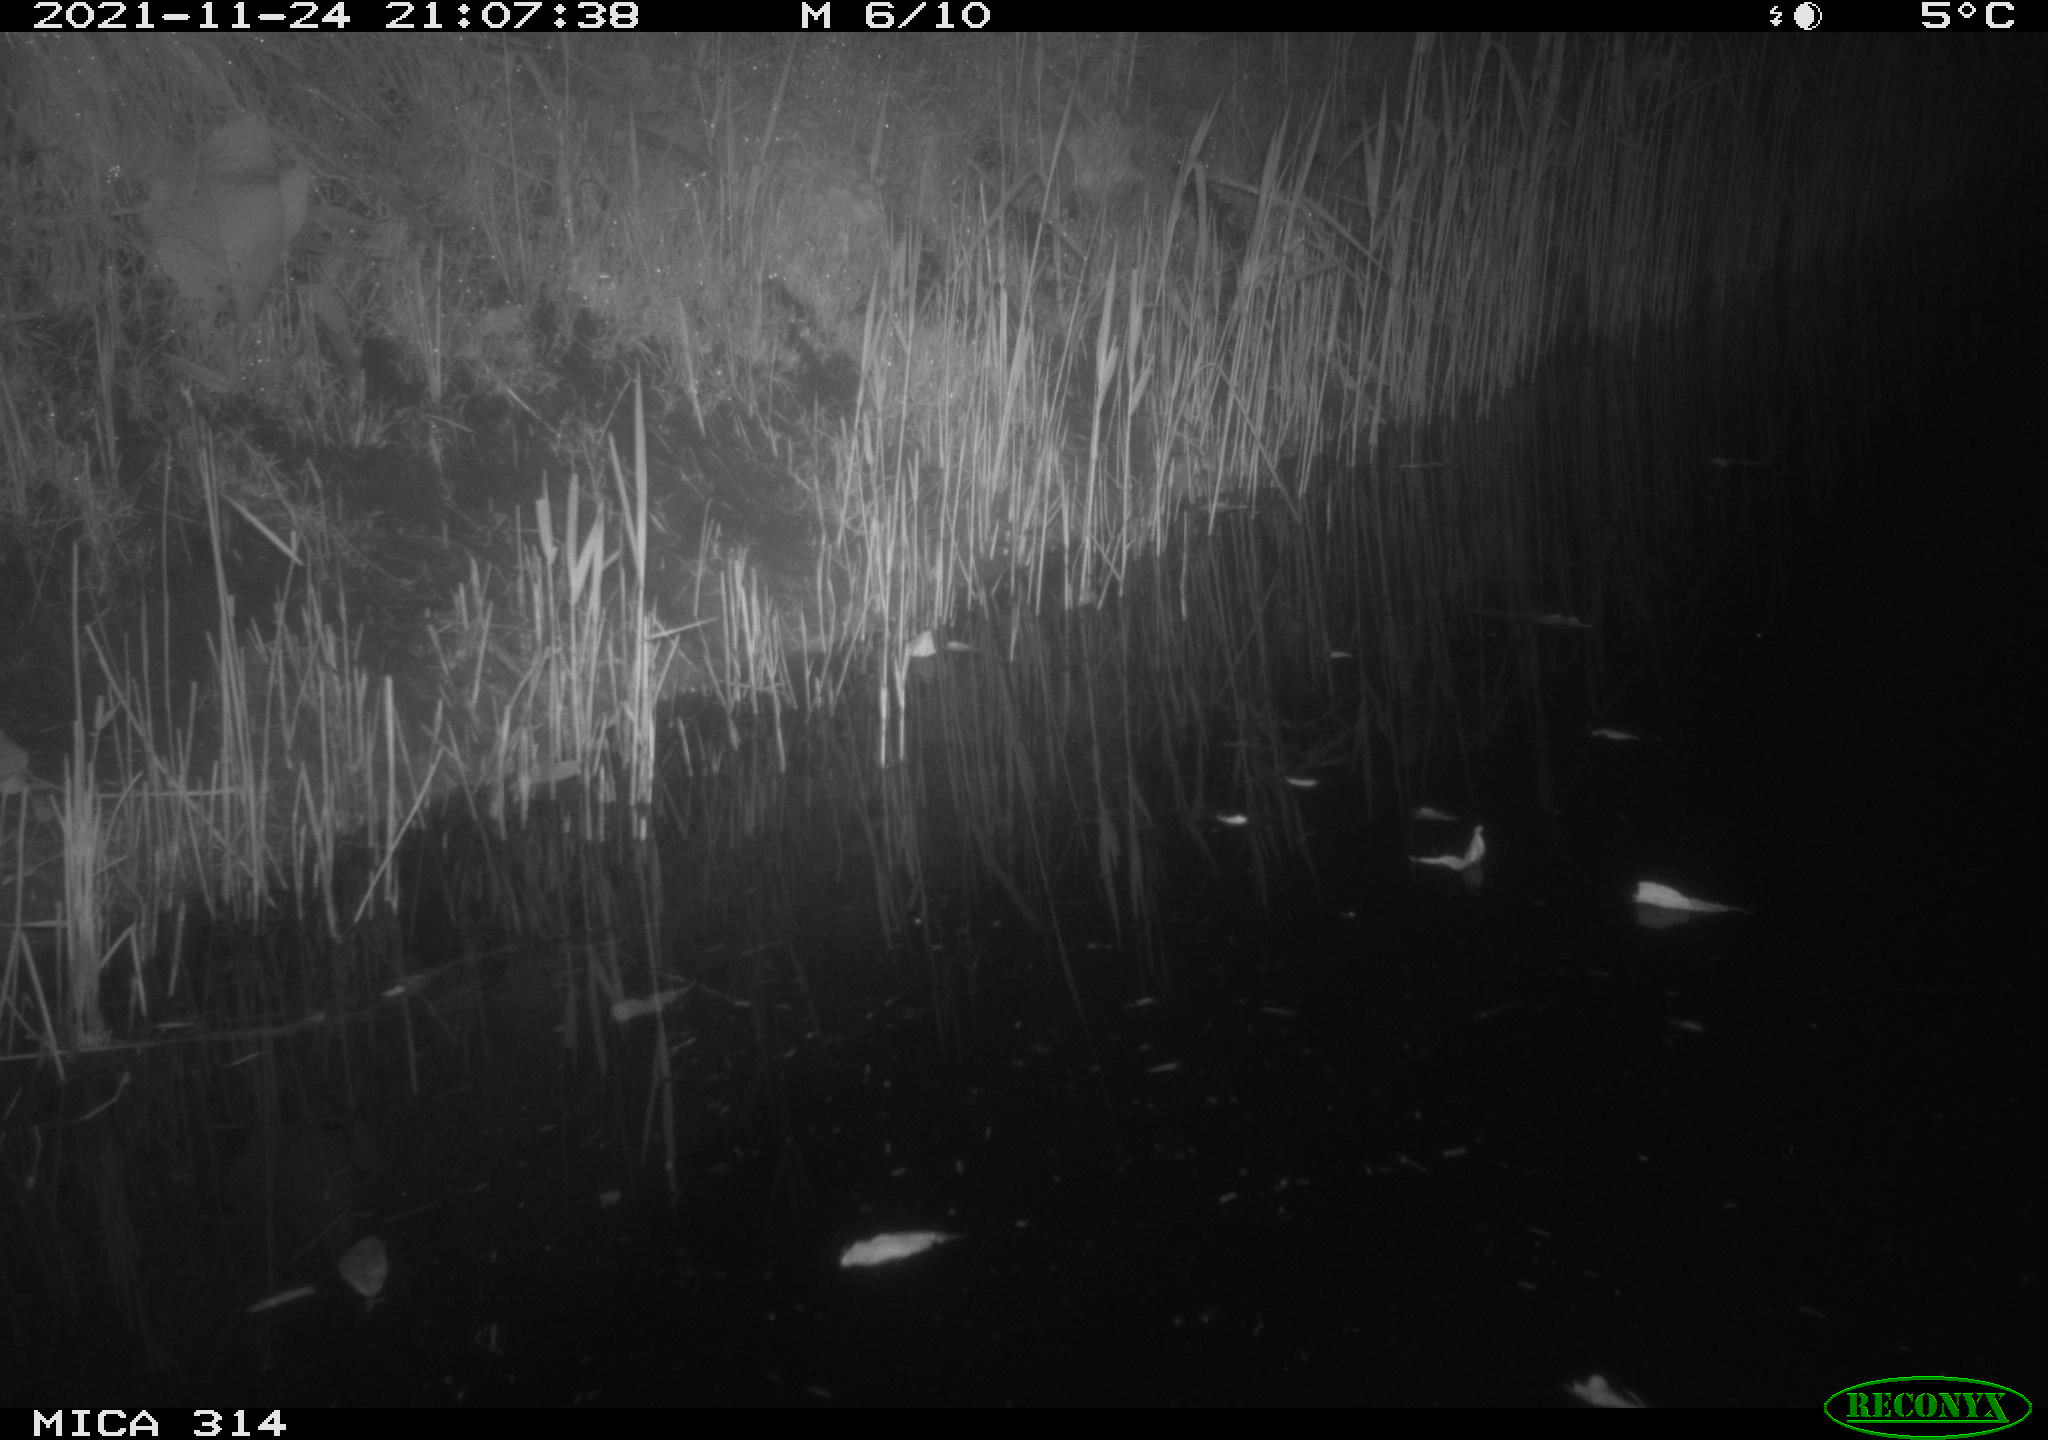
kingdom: Animalia
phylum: Chordata
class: Mammalia
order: Rodentia
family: Muridae
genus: Rattus
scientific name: Rattus norvegicus
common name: Brown rat
